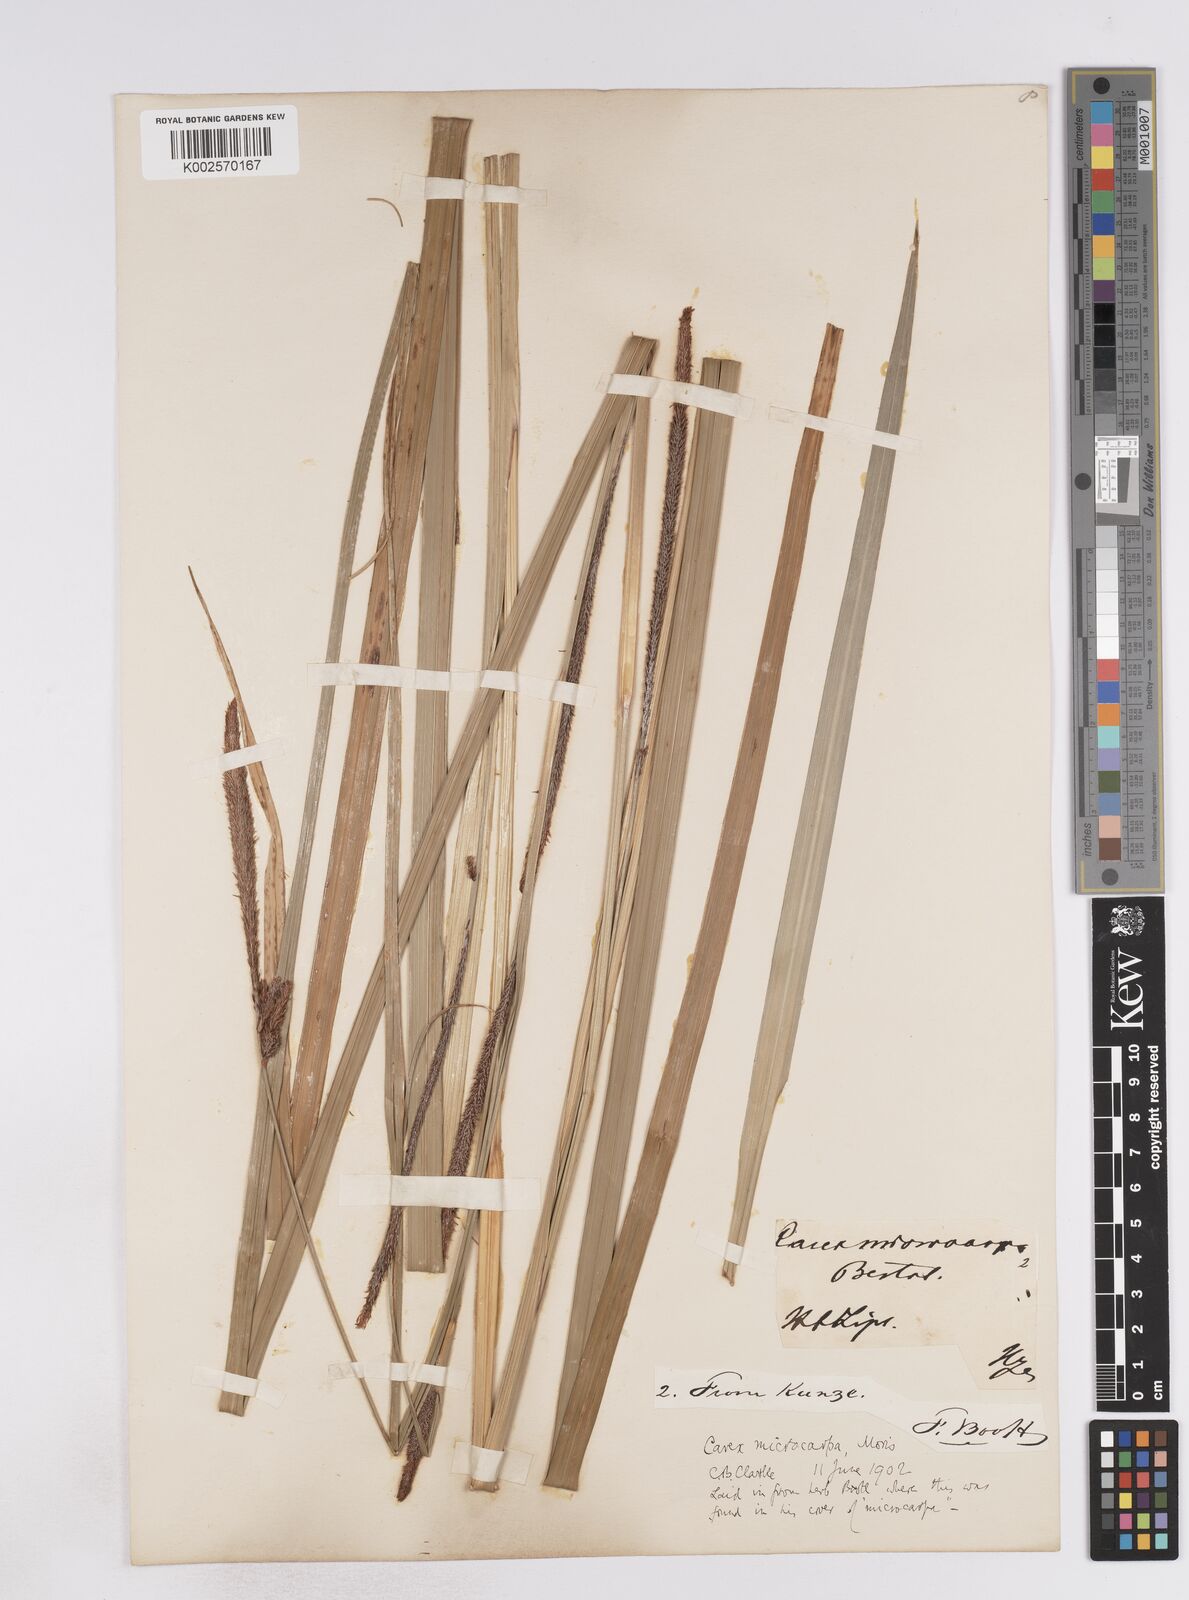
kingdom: Plantae
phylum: Tracheophyta
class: Liliopsida
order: Poales
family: Cyperaceae
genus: Carex
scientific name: Carex microcarpa
